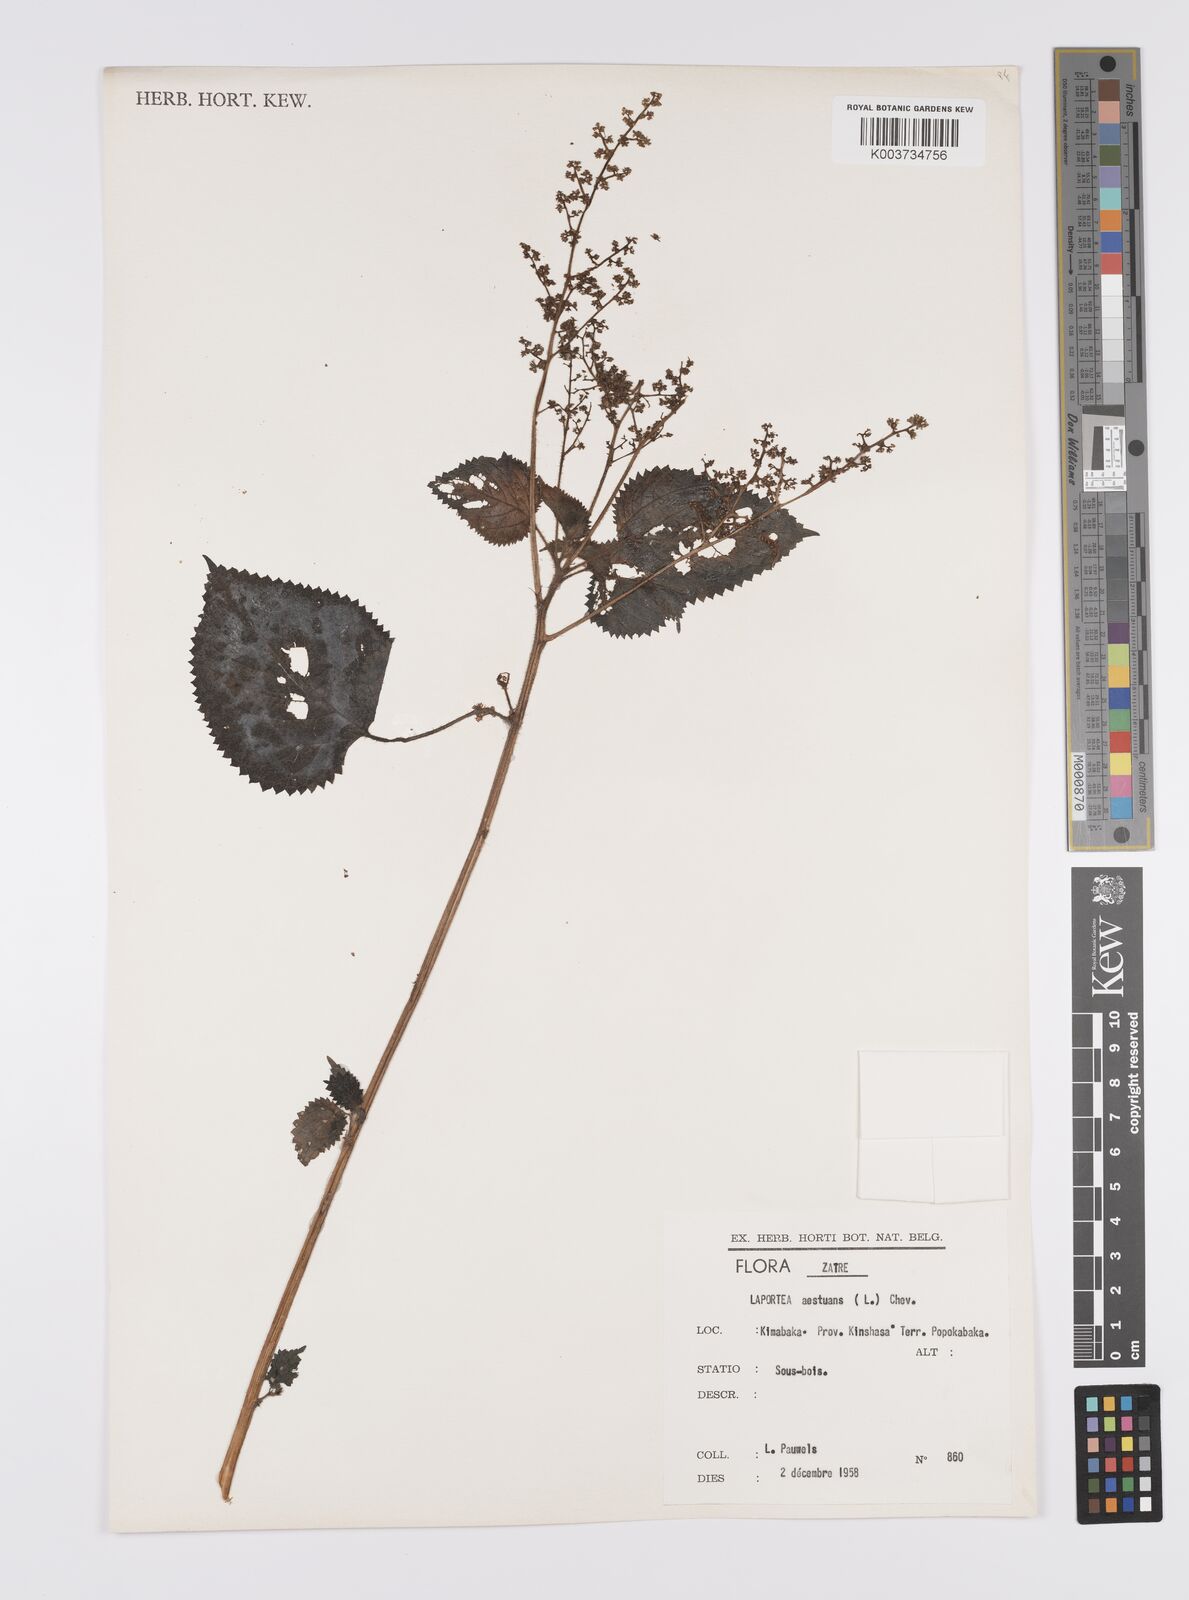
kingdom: Plantae
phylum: Tracheophyta
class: Magnoliopsida
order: Rosales
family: Urticaceae
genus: Laportea
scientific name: Laportea aestuans
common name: West indian woodnettle
